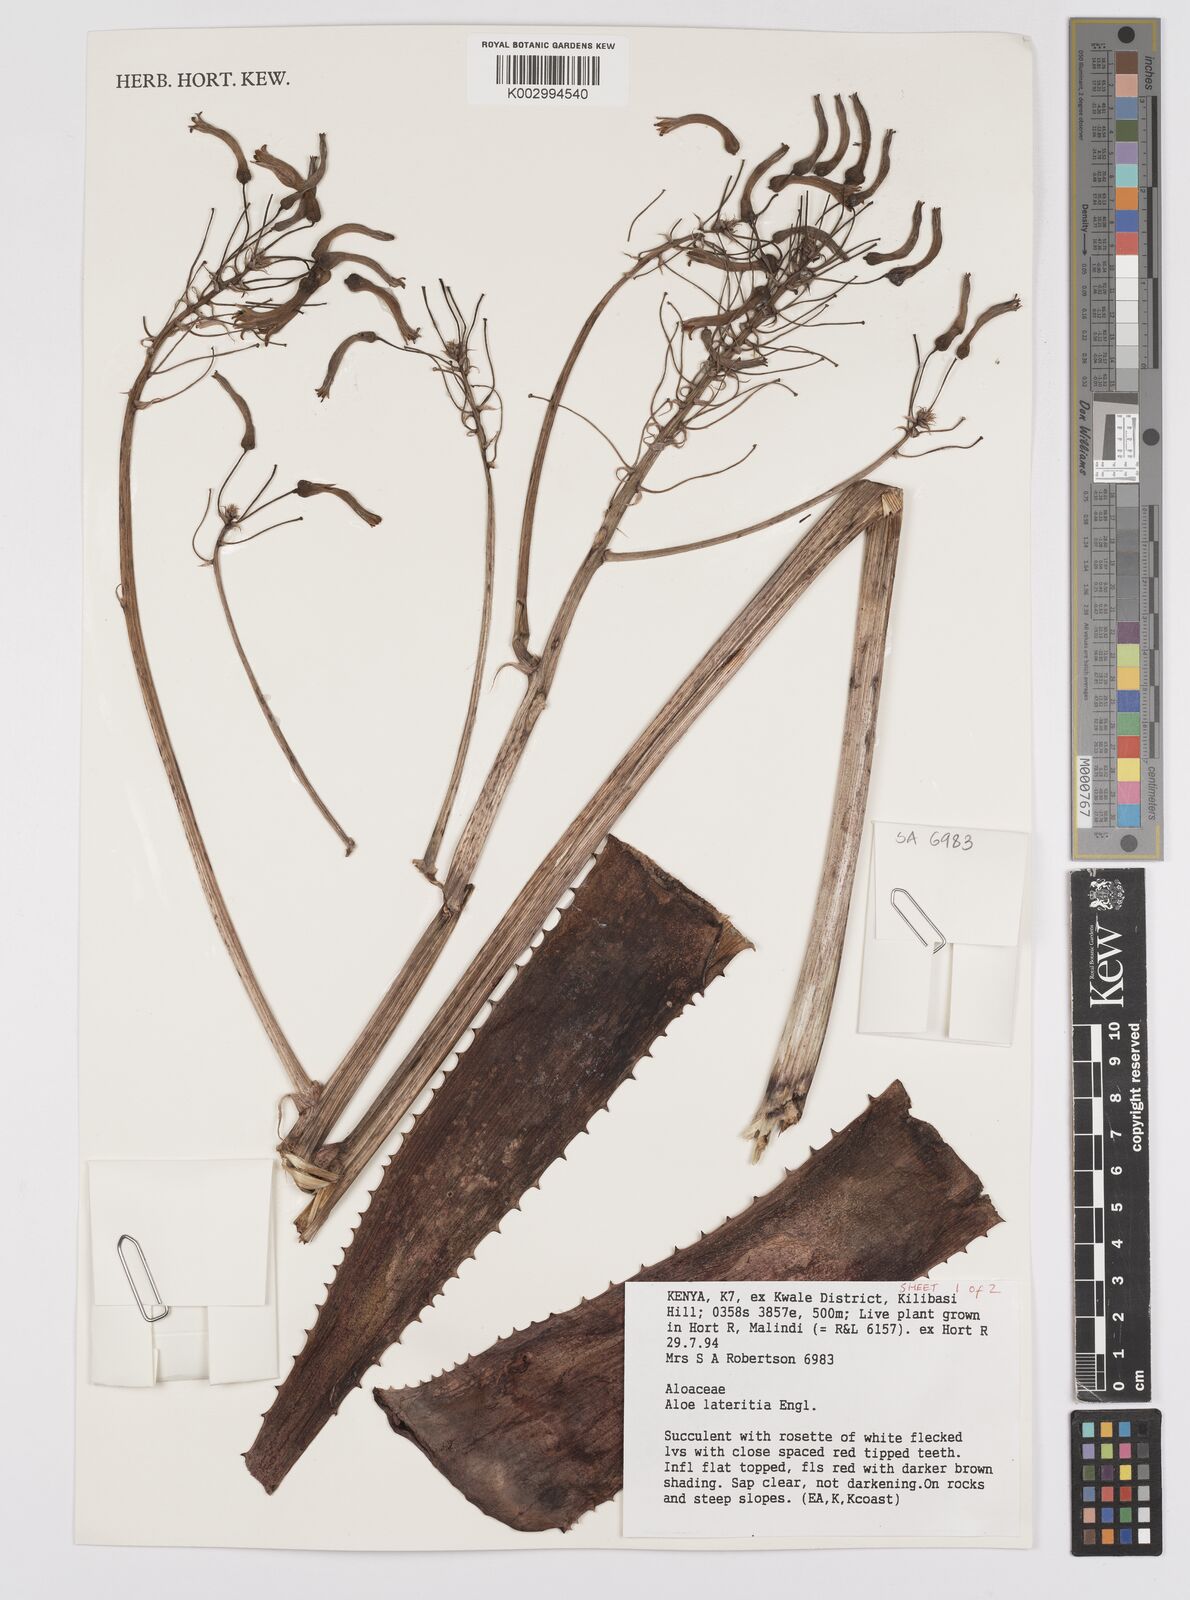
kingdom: Plantae
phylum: Tracheophyta
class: Liliopsida
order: Asparagales
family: Asphodelaceae
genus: Aloe
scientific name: Aloe lateritia
